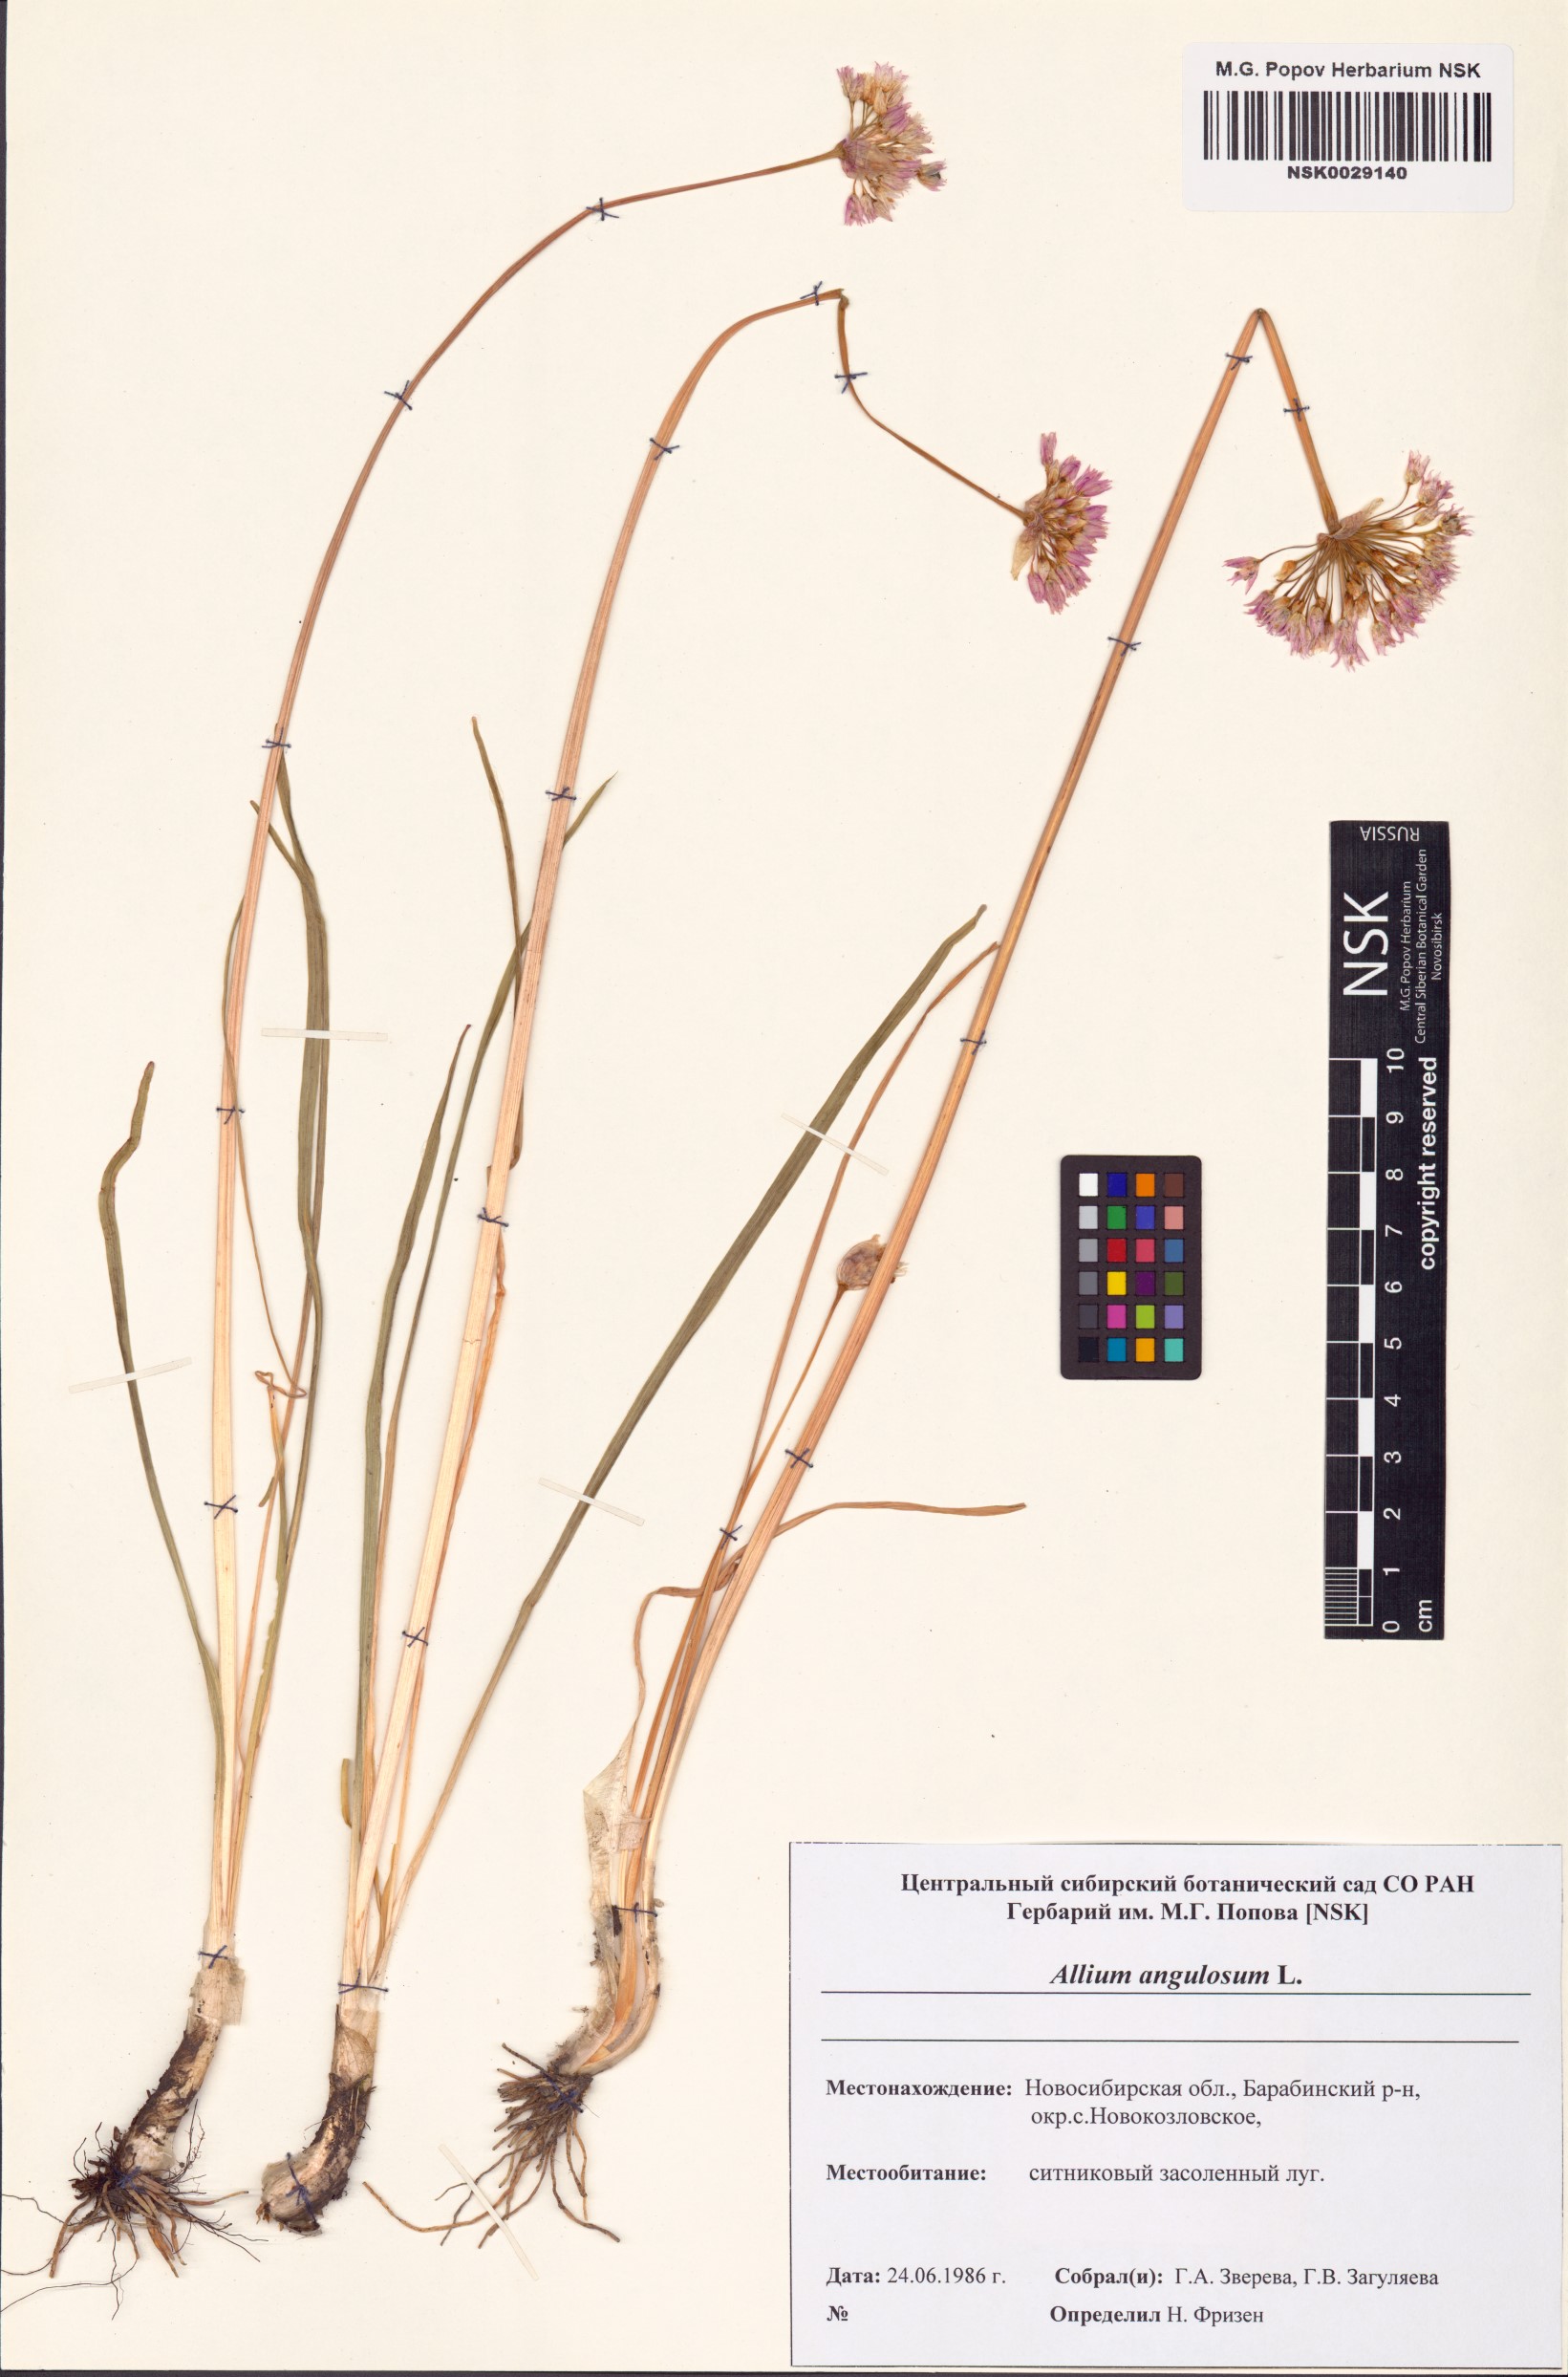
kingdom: Plantae
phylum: Tracheophyta
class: Liliopsida
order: Asparagales
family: Amaryllidaceae
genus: Allium
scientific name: Allium angulosum
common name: Mouse garlic
